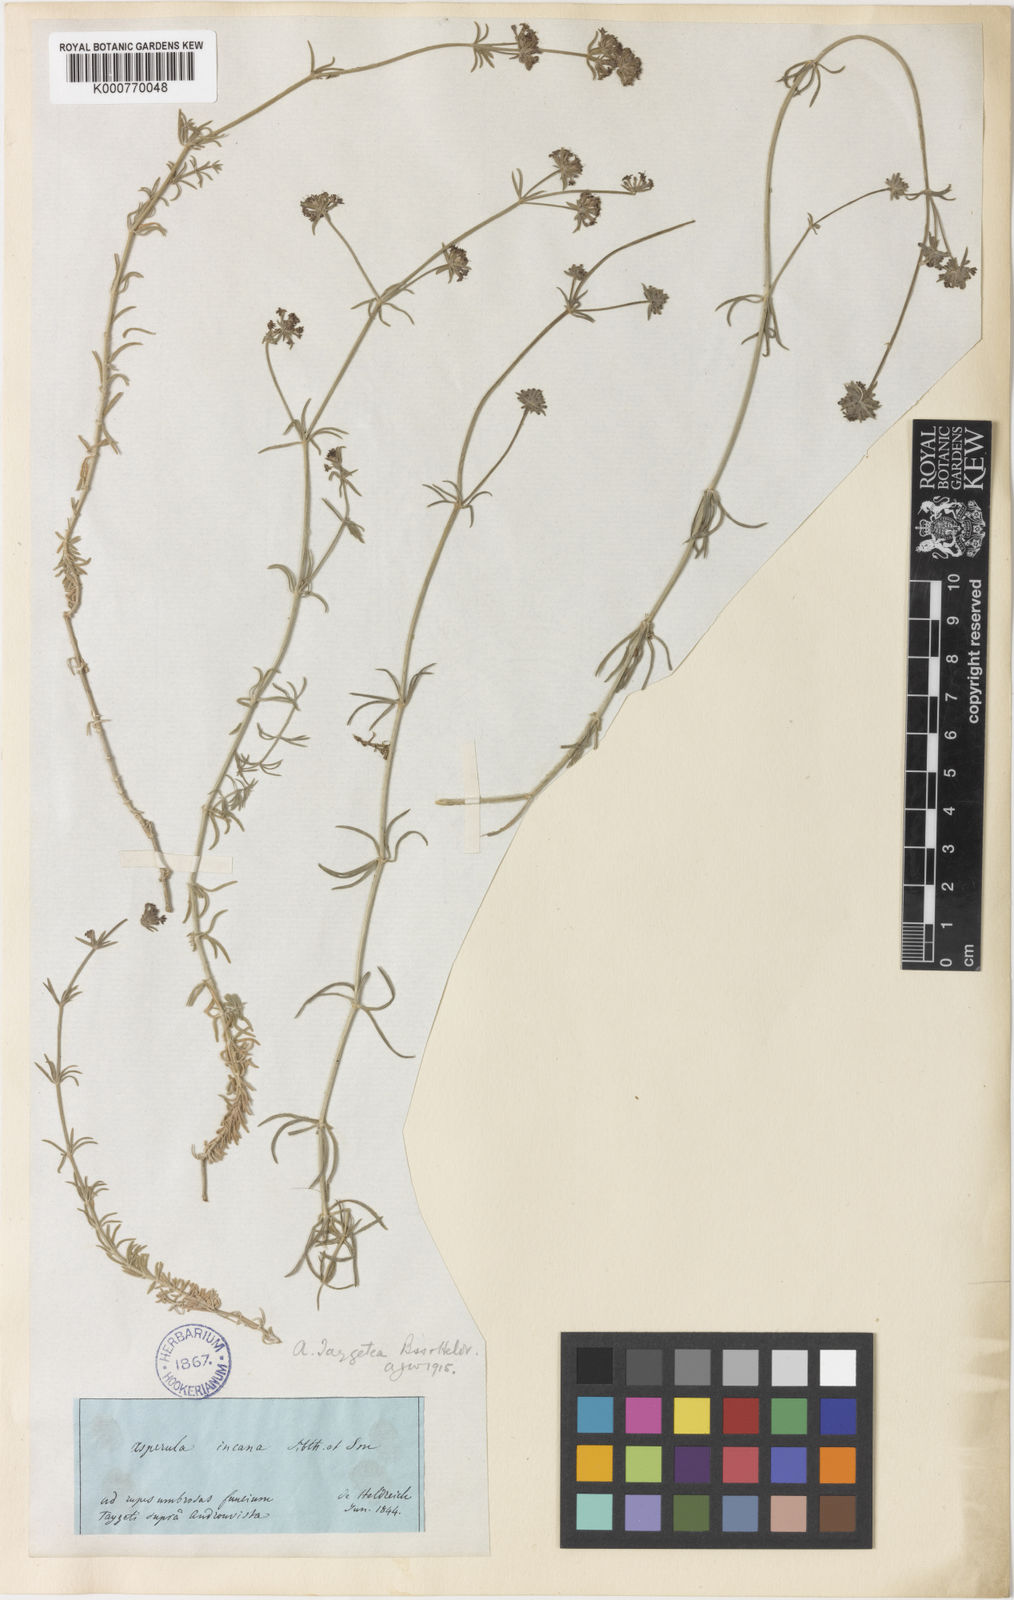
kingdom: Plantae
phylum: Tracheophyta
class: Magnoliopsida
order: Gentianales
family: Rubiaceae
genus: Hexaphylla
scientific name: Hexaphylla taygetea
